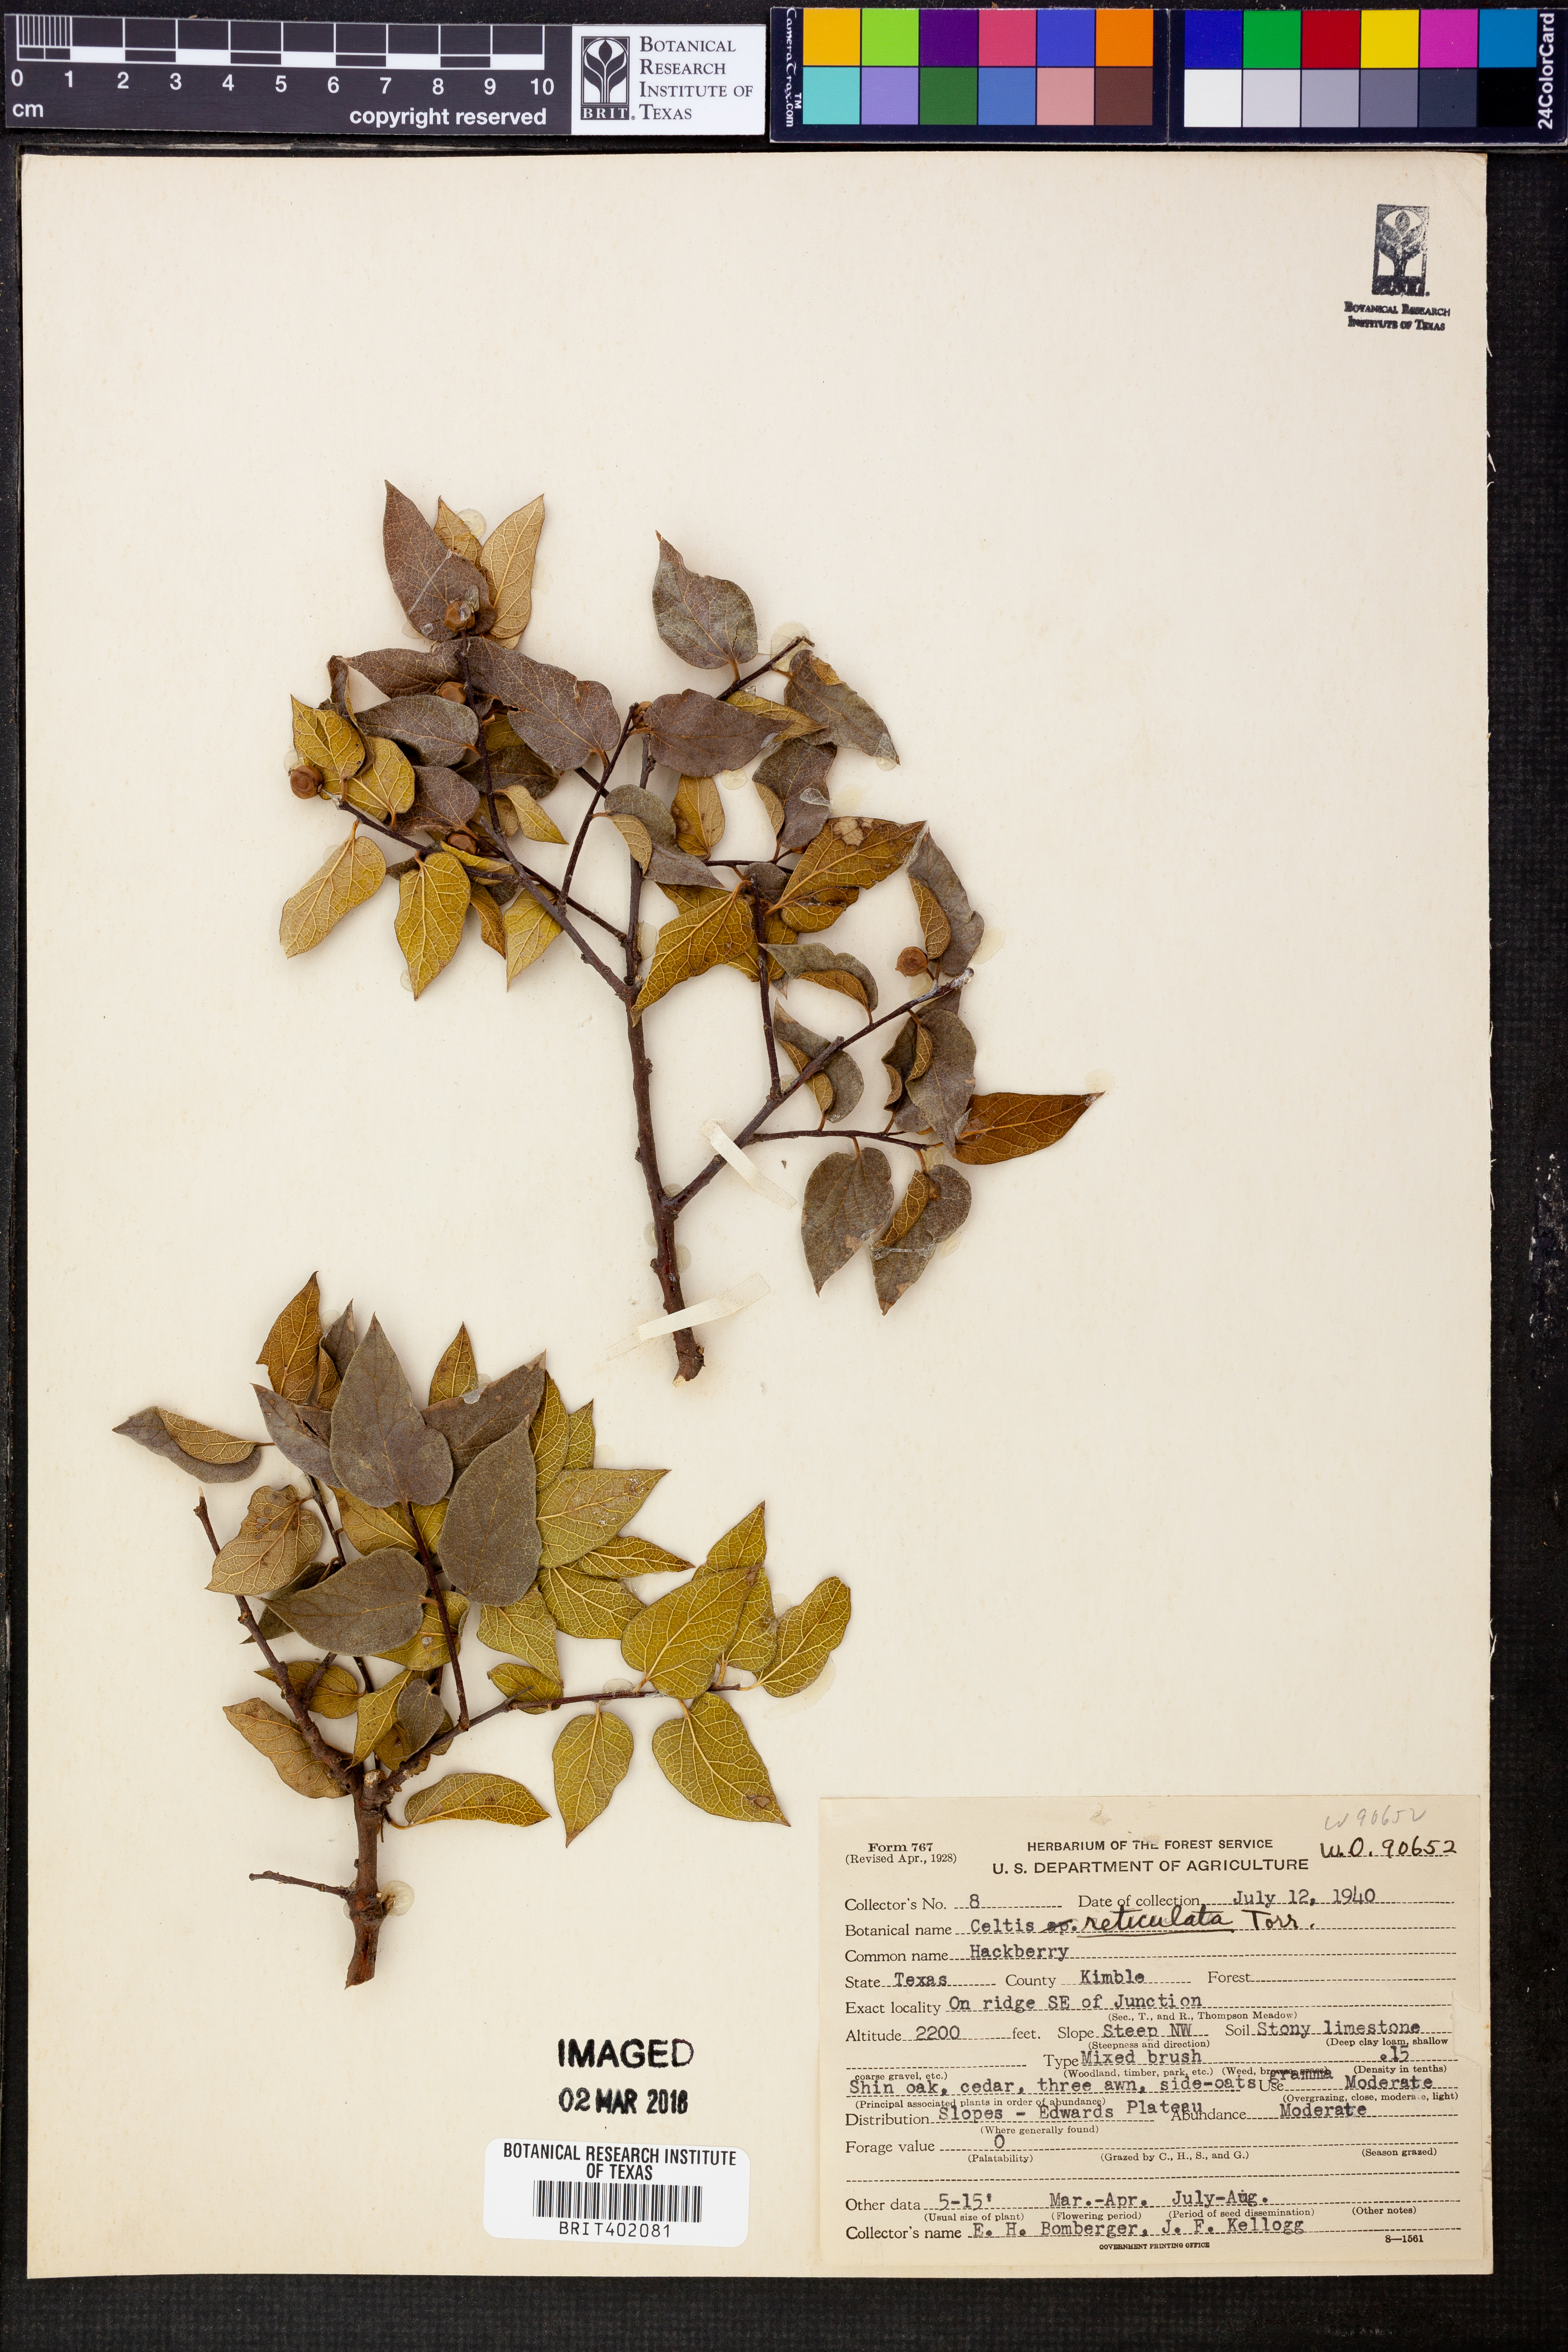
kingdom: Plantae
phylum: Tracheophyta
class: Magnoliopsida
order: Rosales
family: Cannabaceae
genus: Celtis
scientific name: Celtis reticulata
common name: Netleaf hackberry
